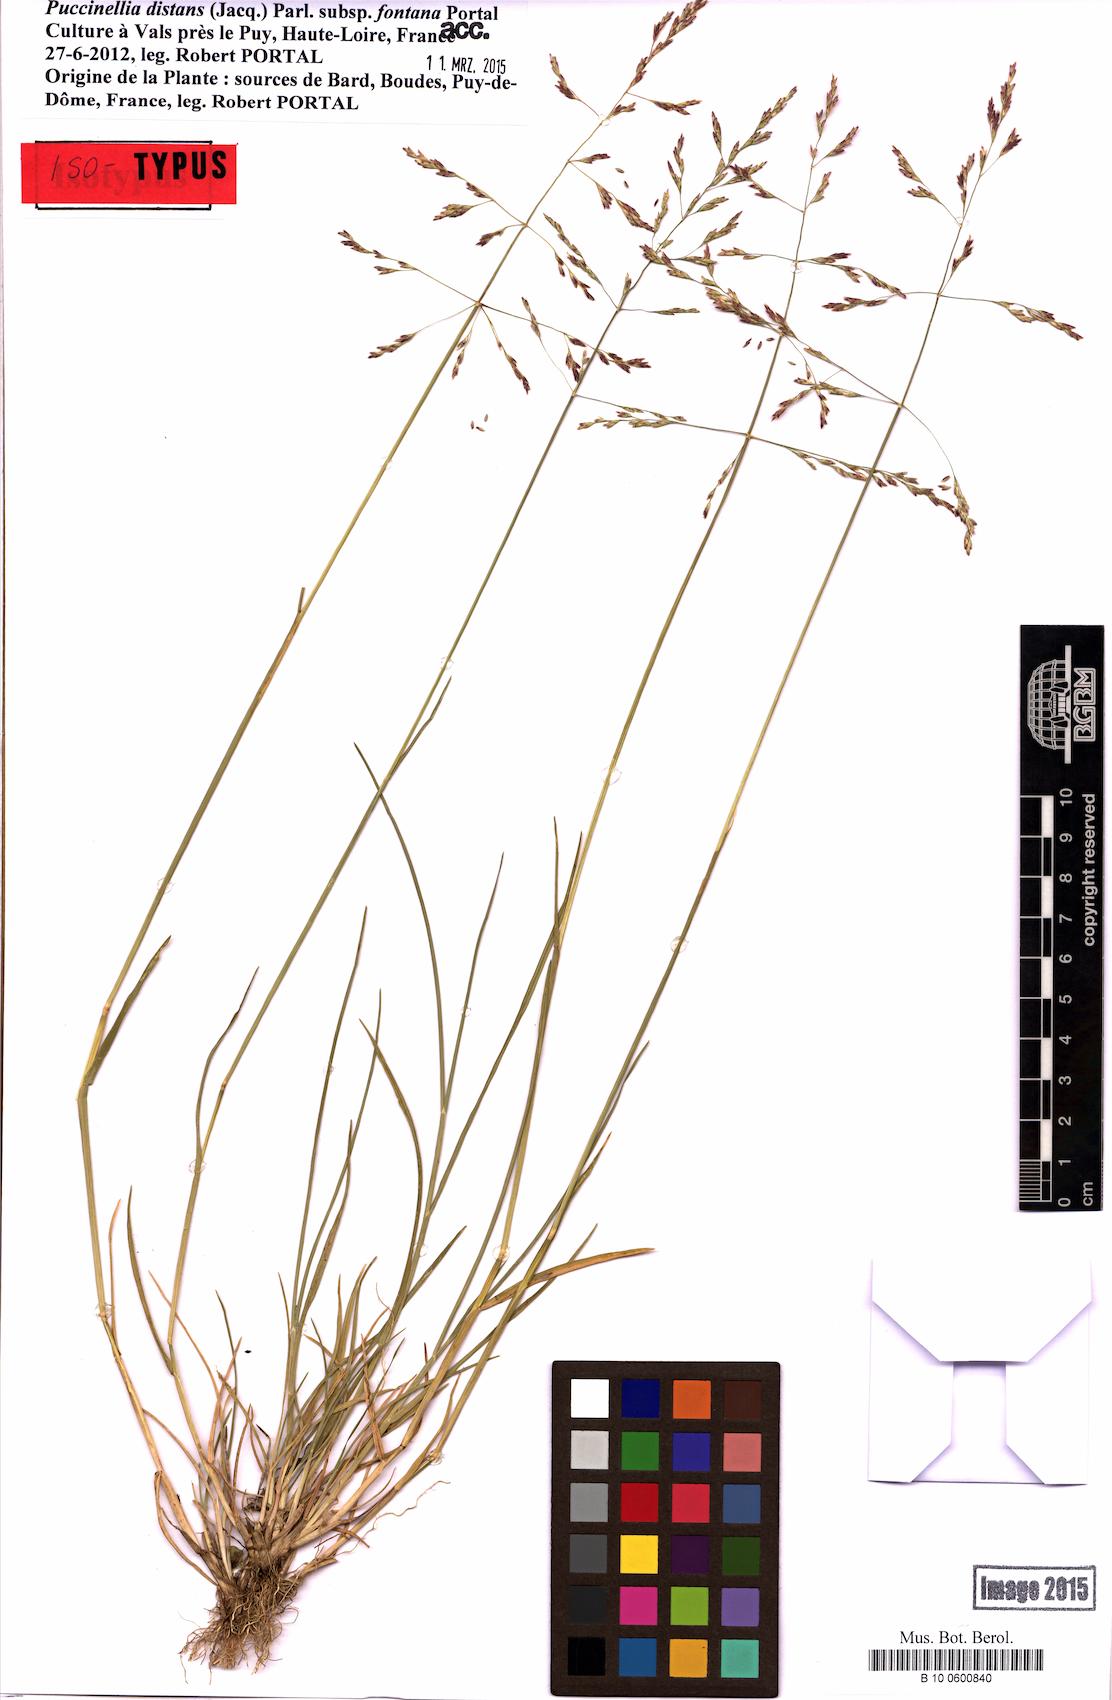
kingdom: Plantae
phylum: Tracheophyta
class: Liliopsida
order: Poales
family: Poaceae
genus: Puccinellia
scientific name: Puccinellia fontana
